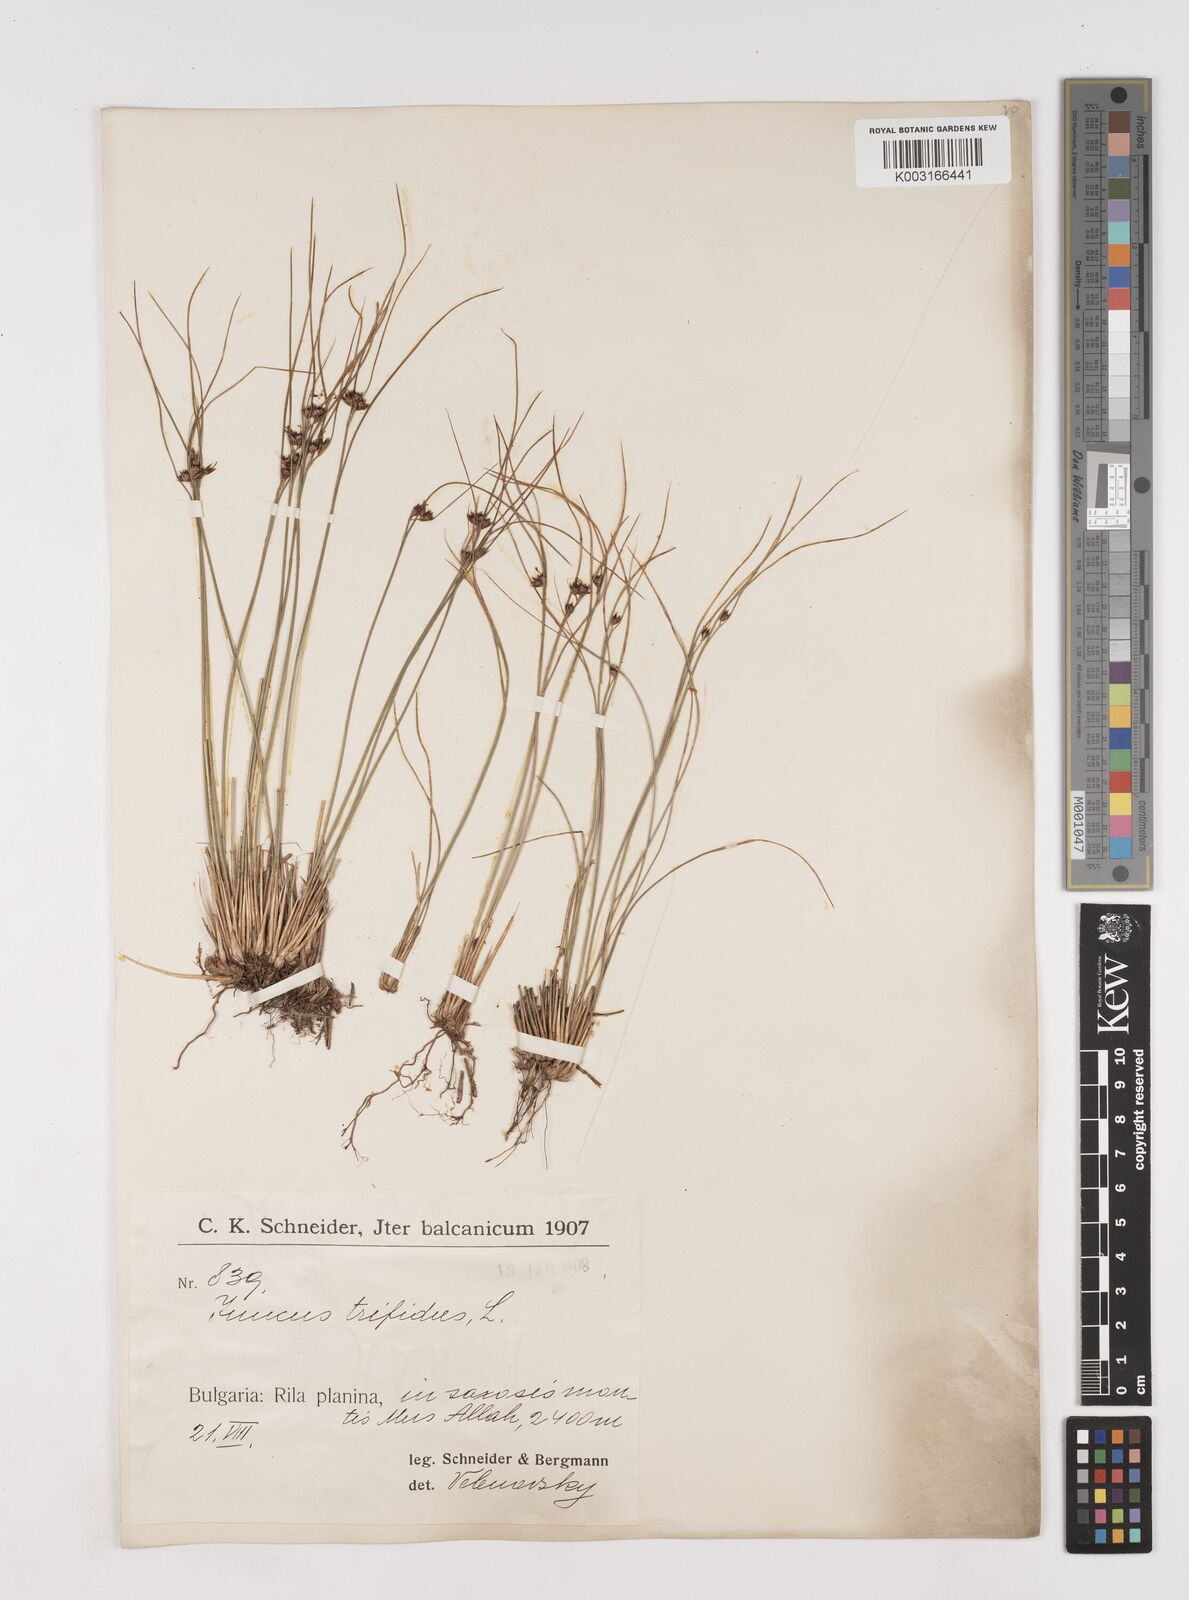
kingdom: Plantae
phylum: Tracheophyta
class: Liliopsida
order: Poales
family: Juncaceae
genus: Oreojuncus
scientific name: Oreojuncus trifidus
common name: Highland rush
